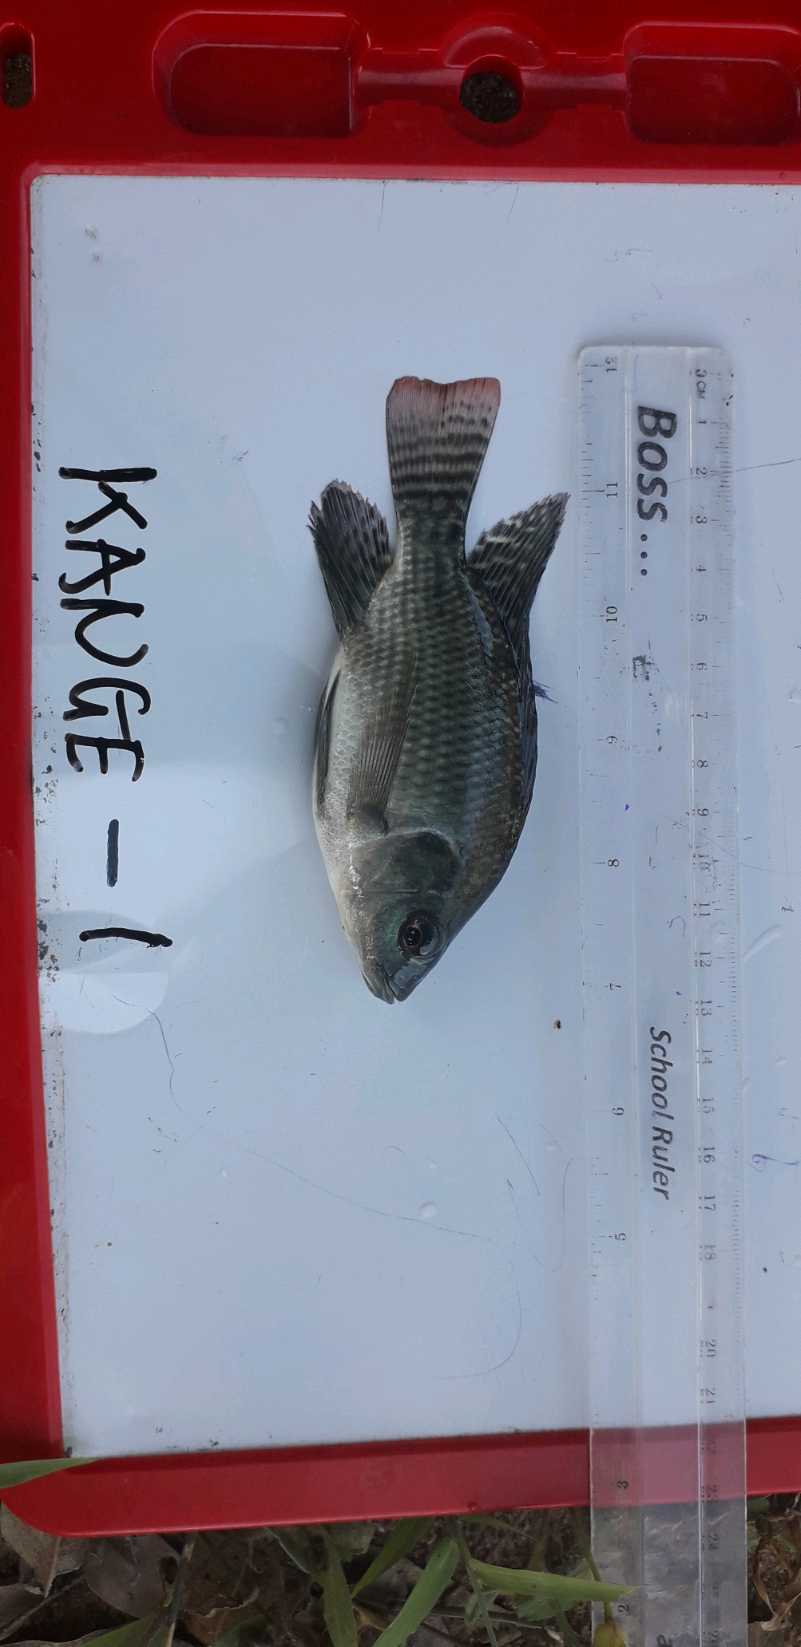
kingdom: Animalia
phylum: Chordata
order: Perciformes
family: Cichlidae
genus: Oreochromis
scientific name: Oreochromis niloticus
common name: Nile tilapia
